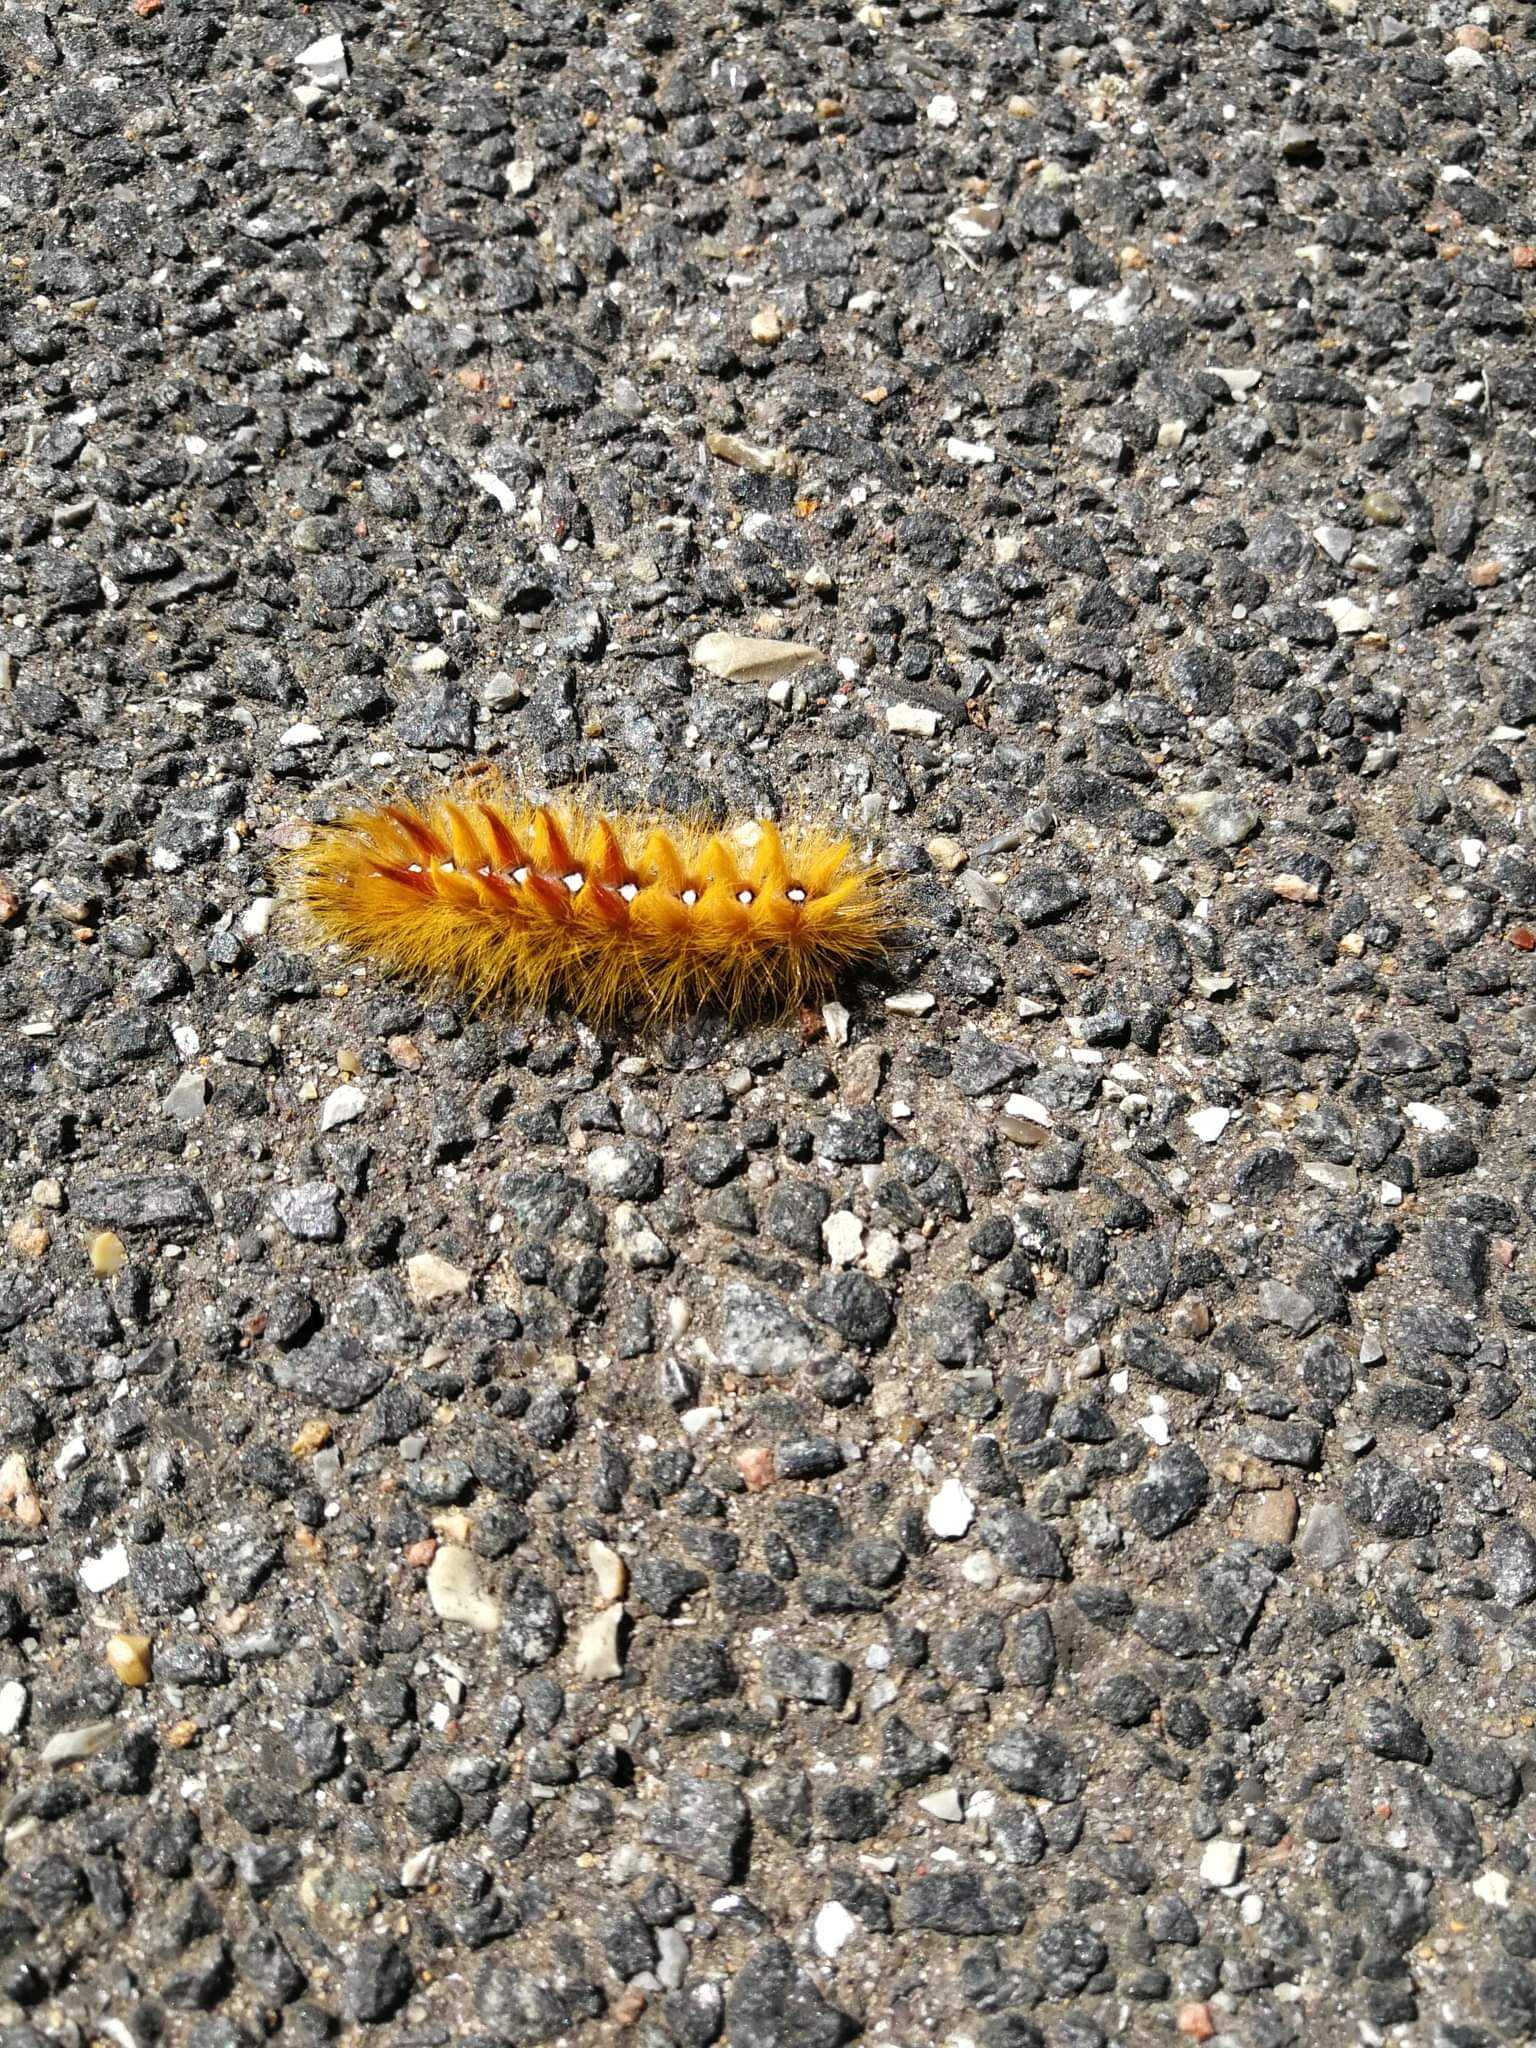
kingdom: Animalia
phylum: Arthropoda
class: Insecta
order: Lepidoptera
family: Noctuidae
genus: Acronicta
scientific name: Acronicta aceris
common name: Ahornugle
